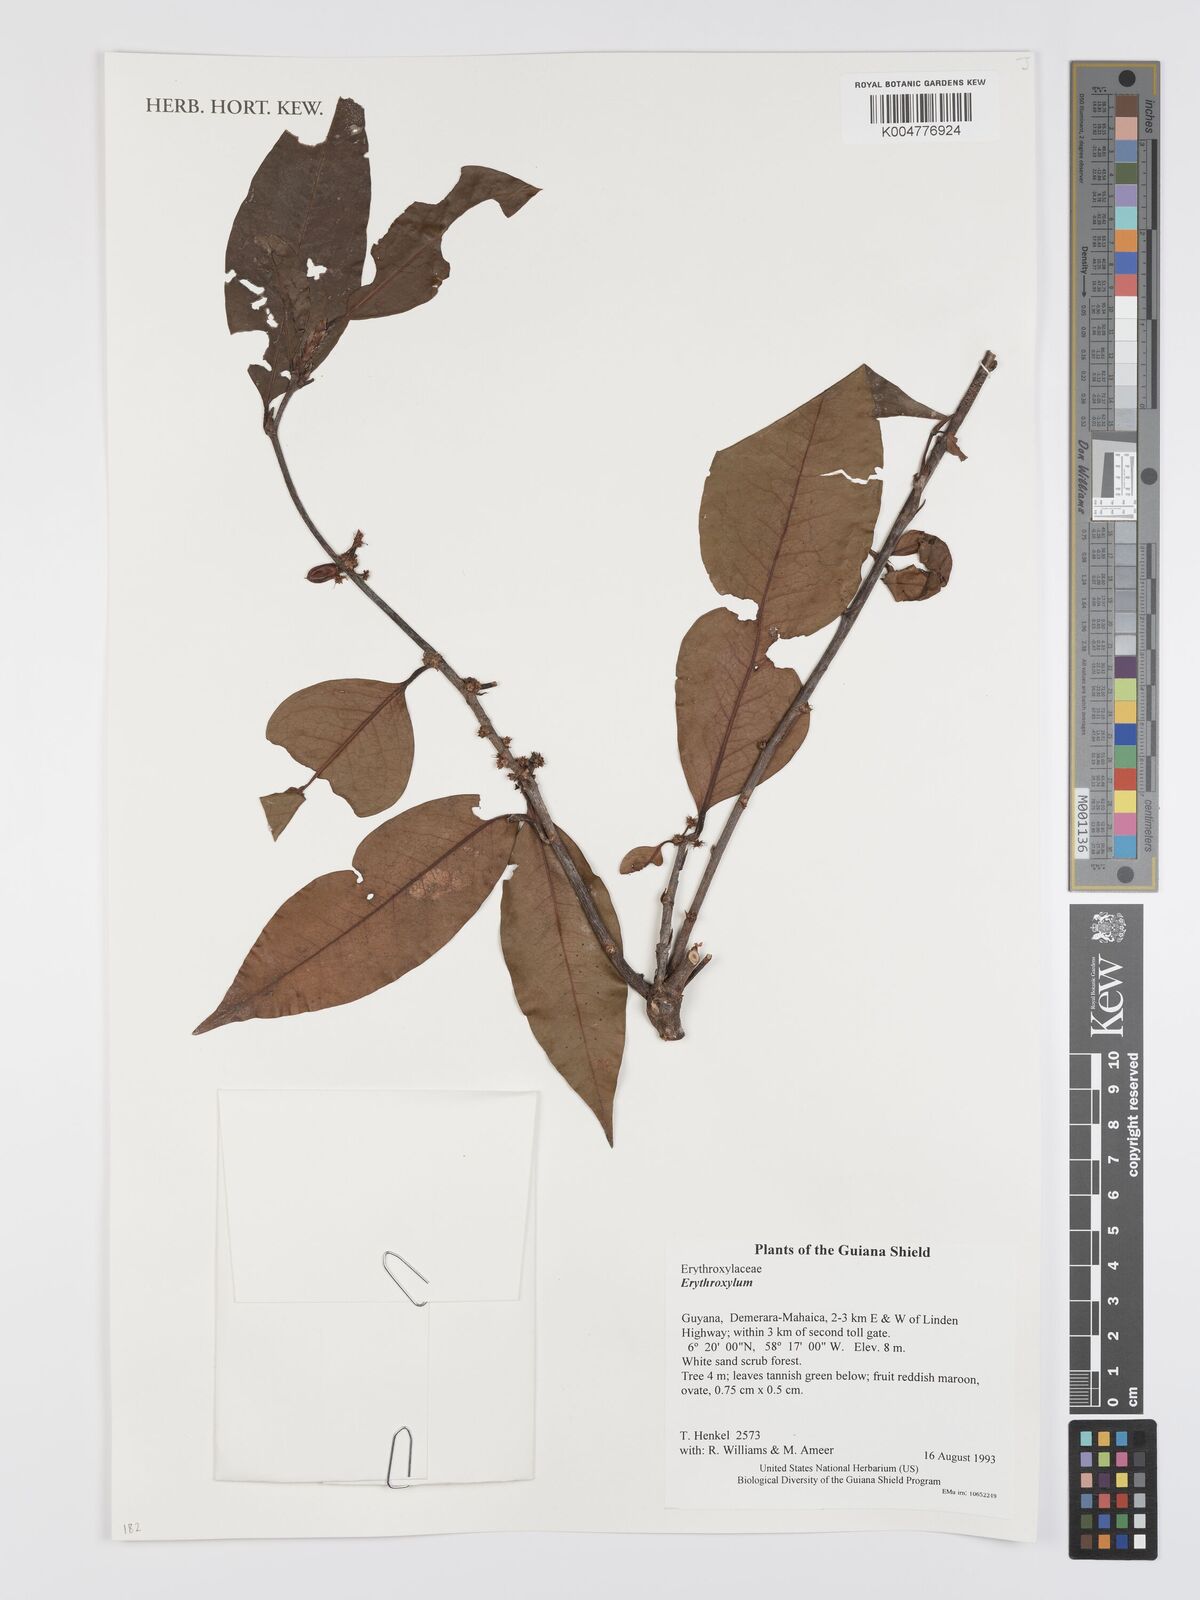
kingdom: Plantae
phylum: Tracheophyta
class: Magnoliopsida
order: Malpighiales
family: Erythroxylaceae
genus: Erythroxylum
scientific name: Erythroxylum
